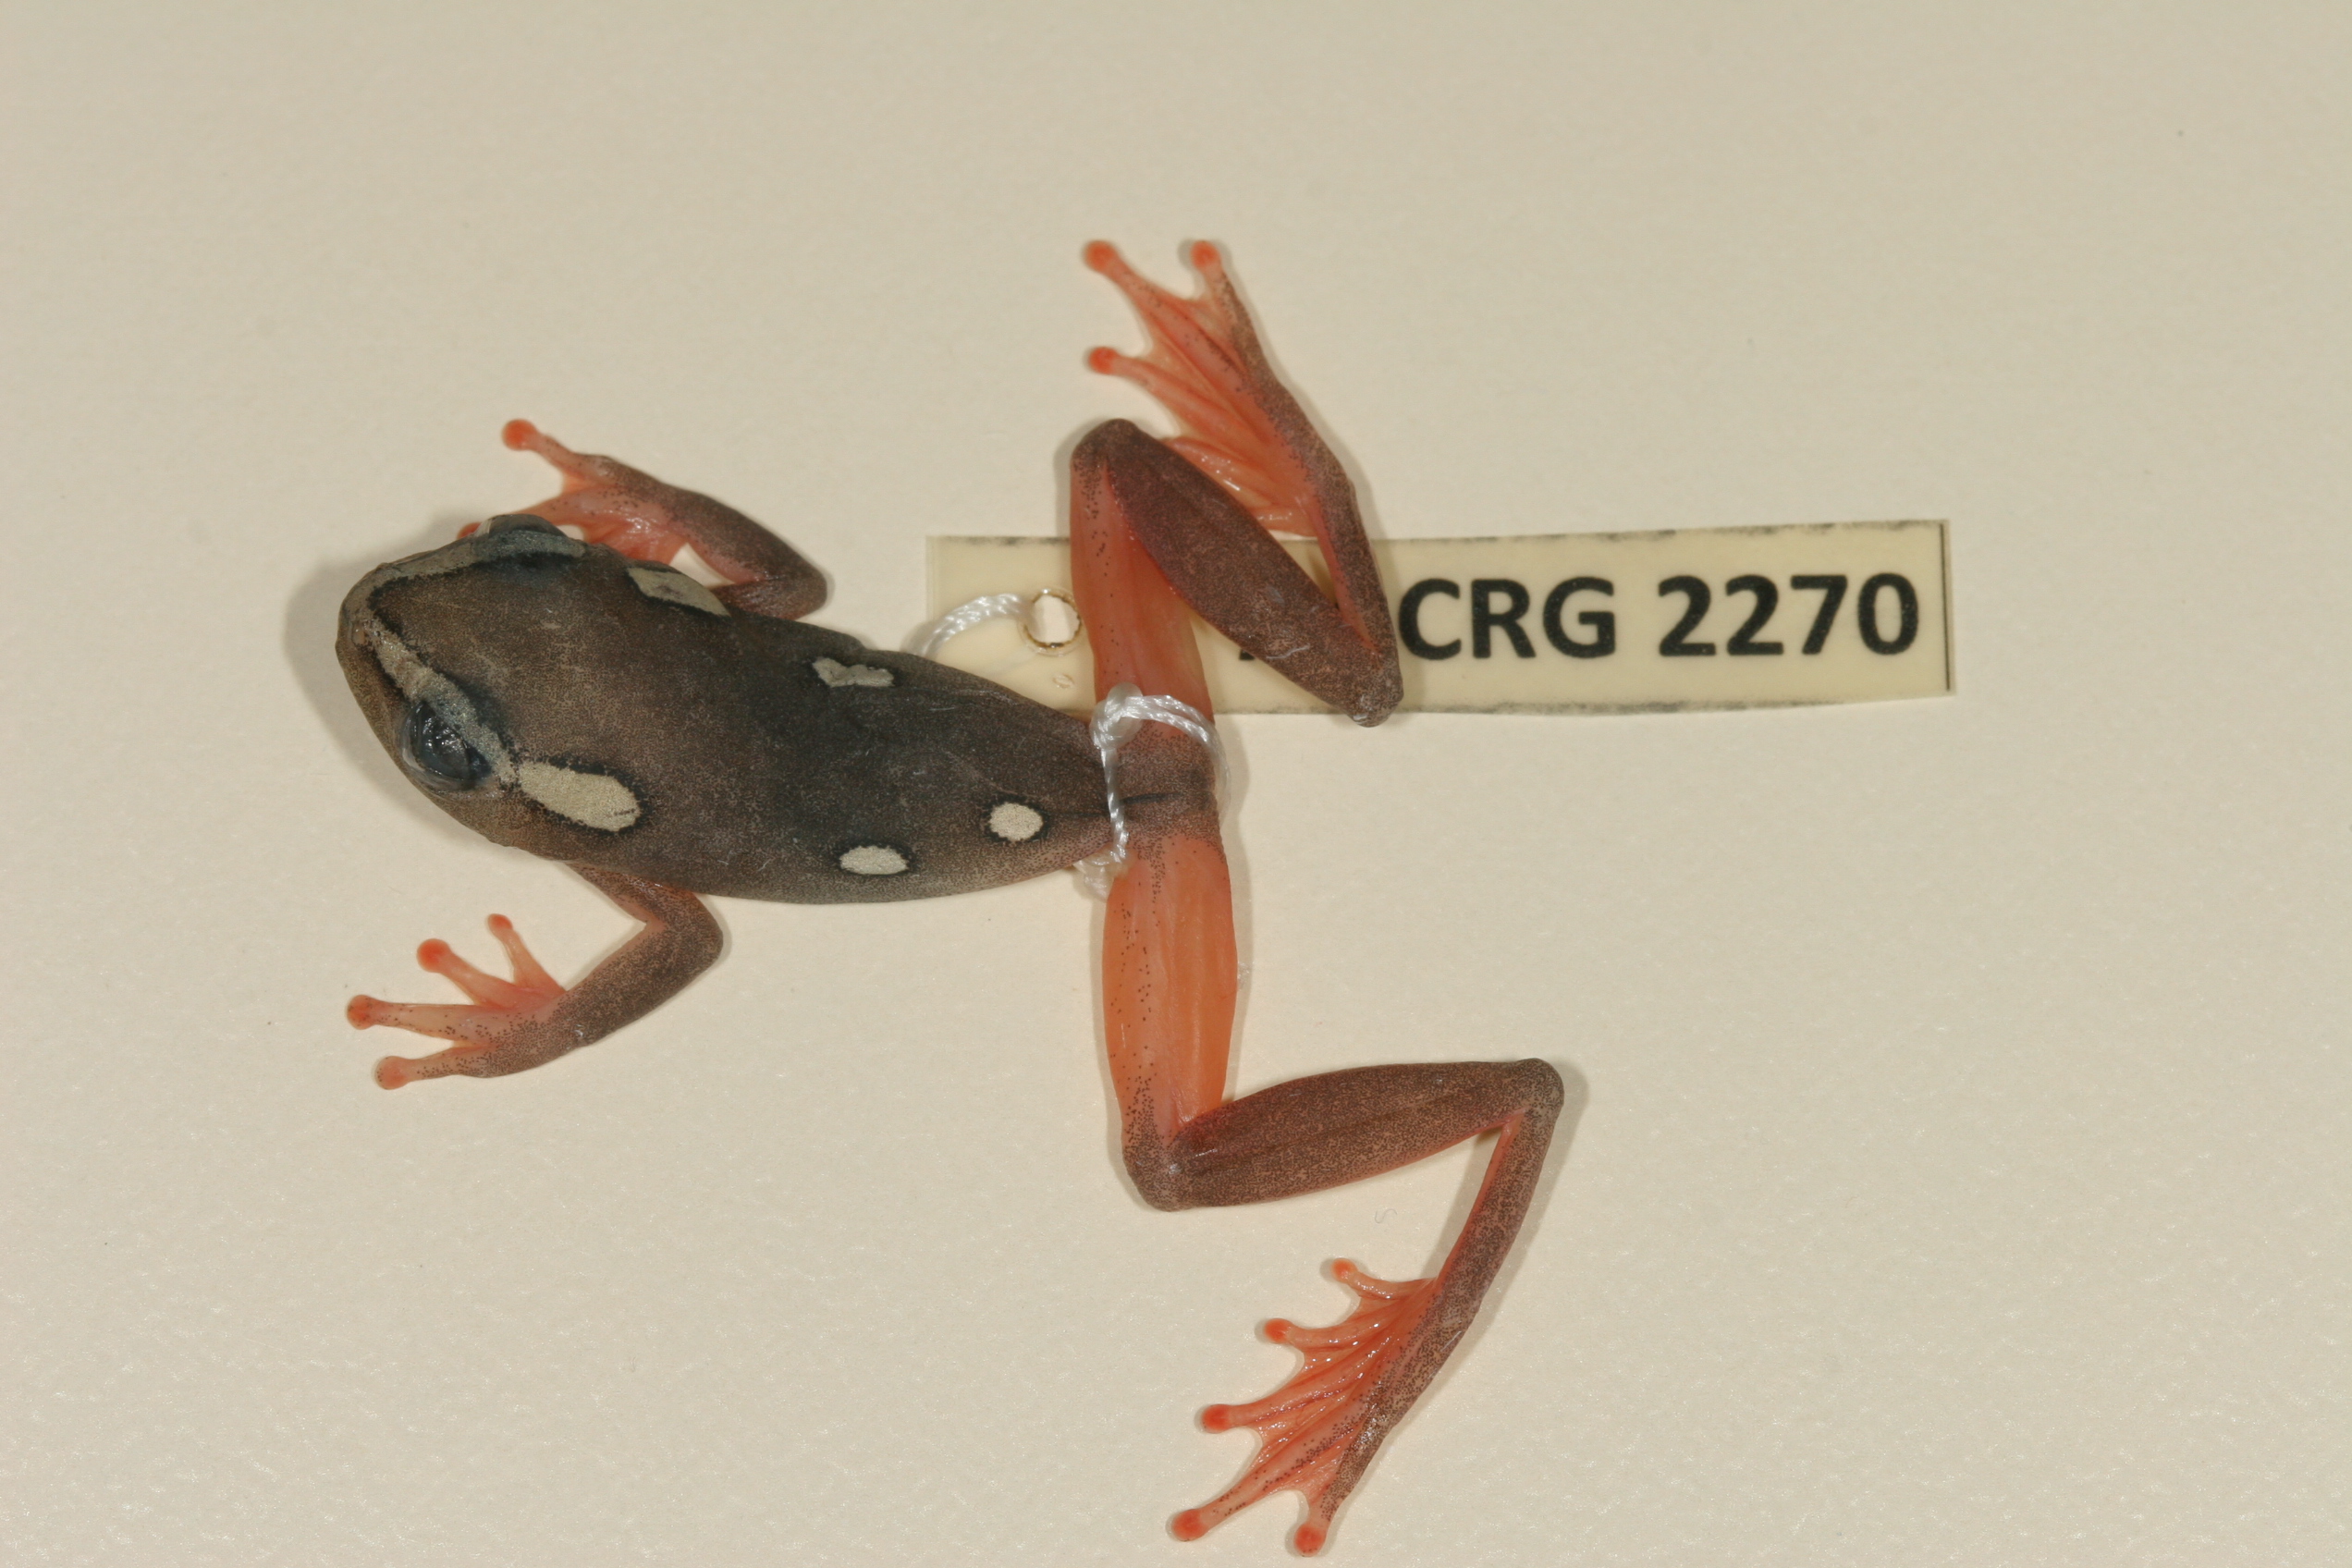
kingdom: Animalia
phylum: Chordata
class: Amphibia
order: Anura
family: Hyperoliidae
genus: Hyperolius
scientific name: Hyperolius argus
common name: Argus reed frog
